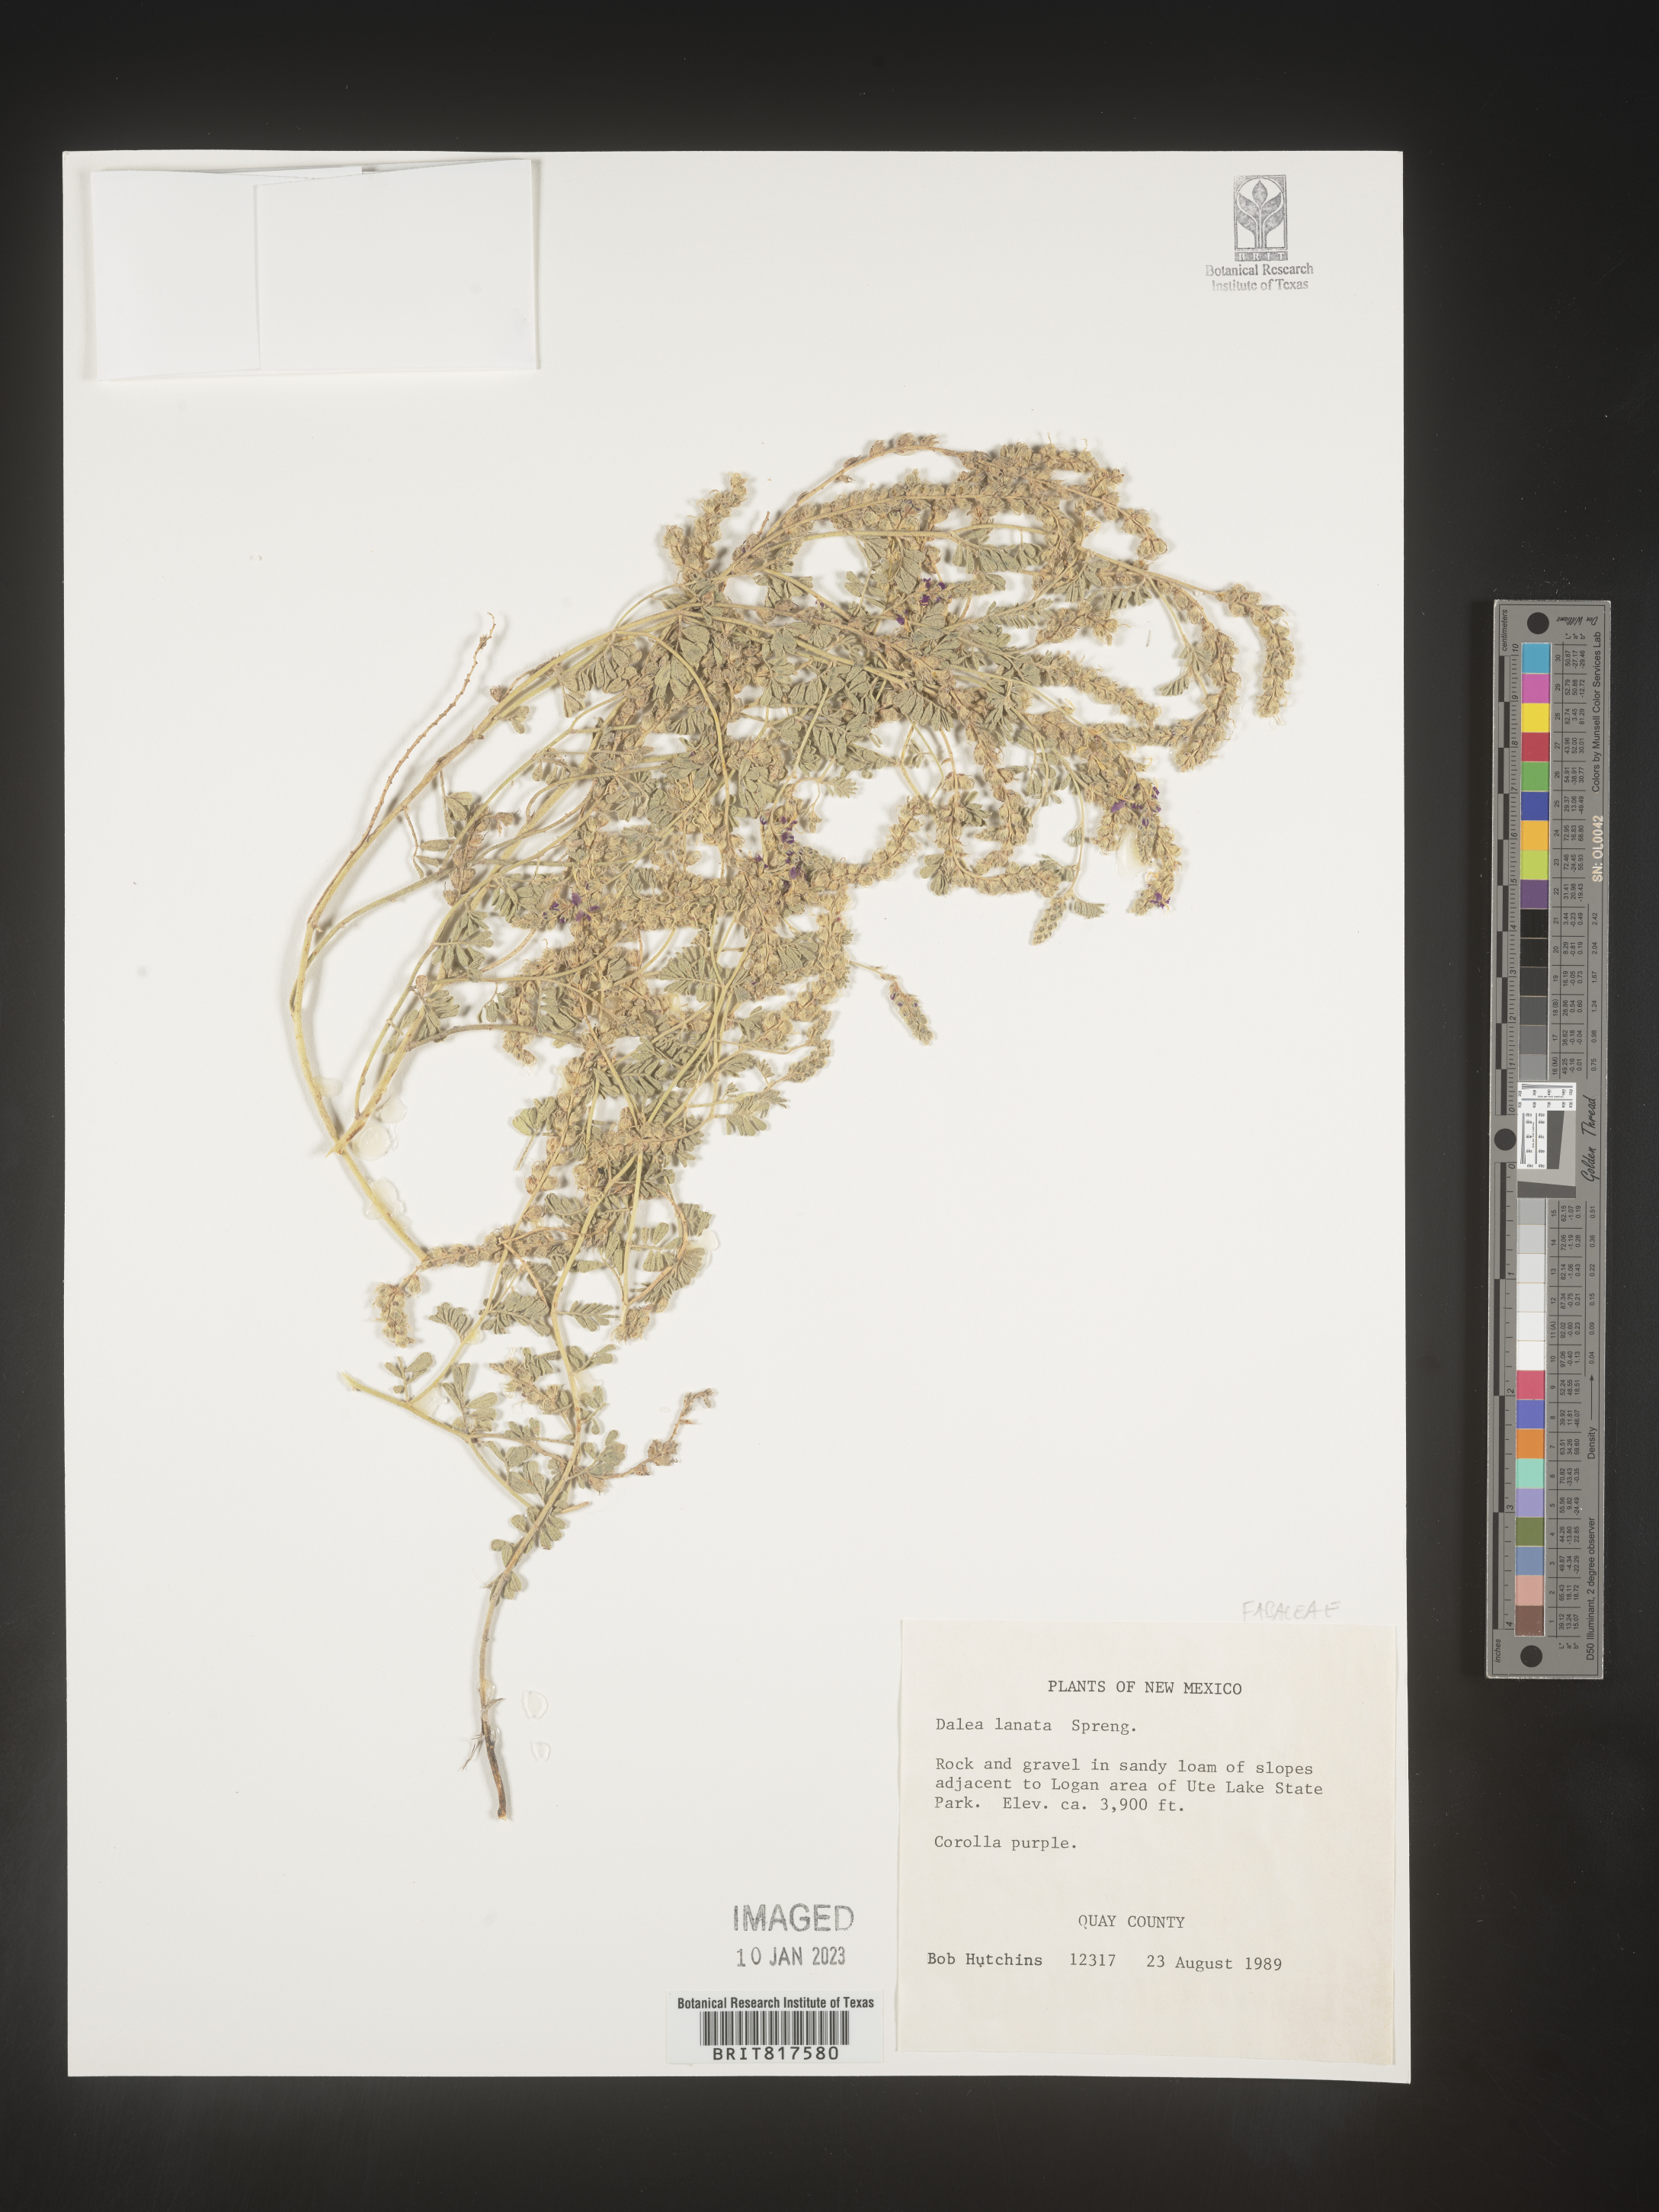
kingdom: Plantae
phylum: Tracheophyta
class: Magnoliopsida
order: Fabales
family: Fabaceae
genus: Dalea
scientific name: Dalea lanata
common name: Woolly dalea
